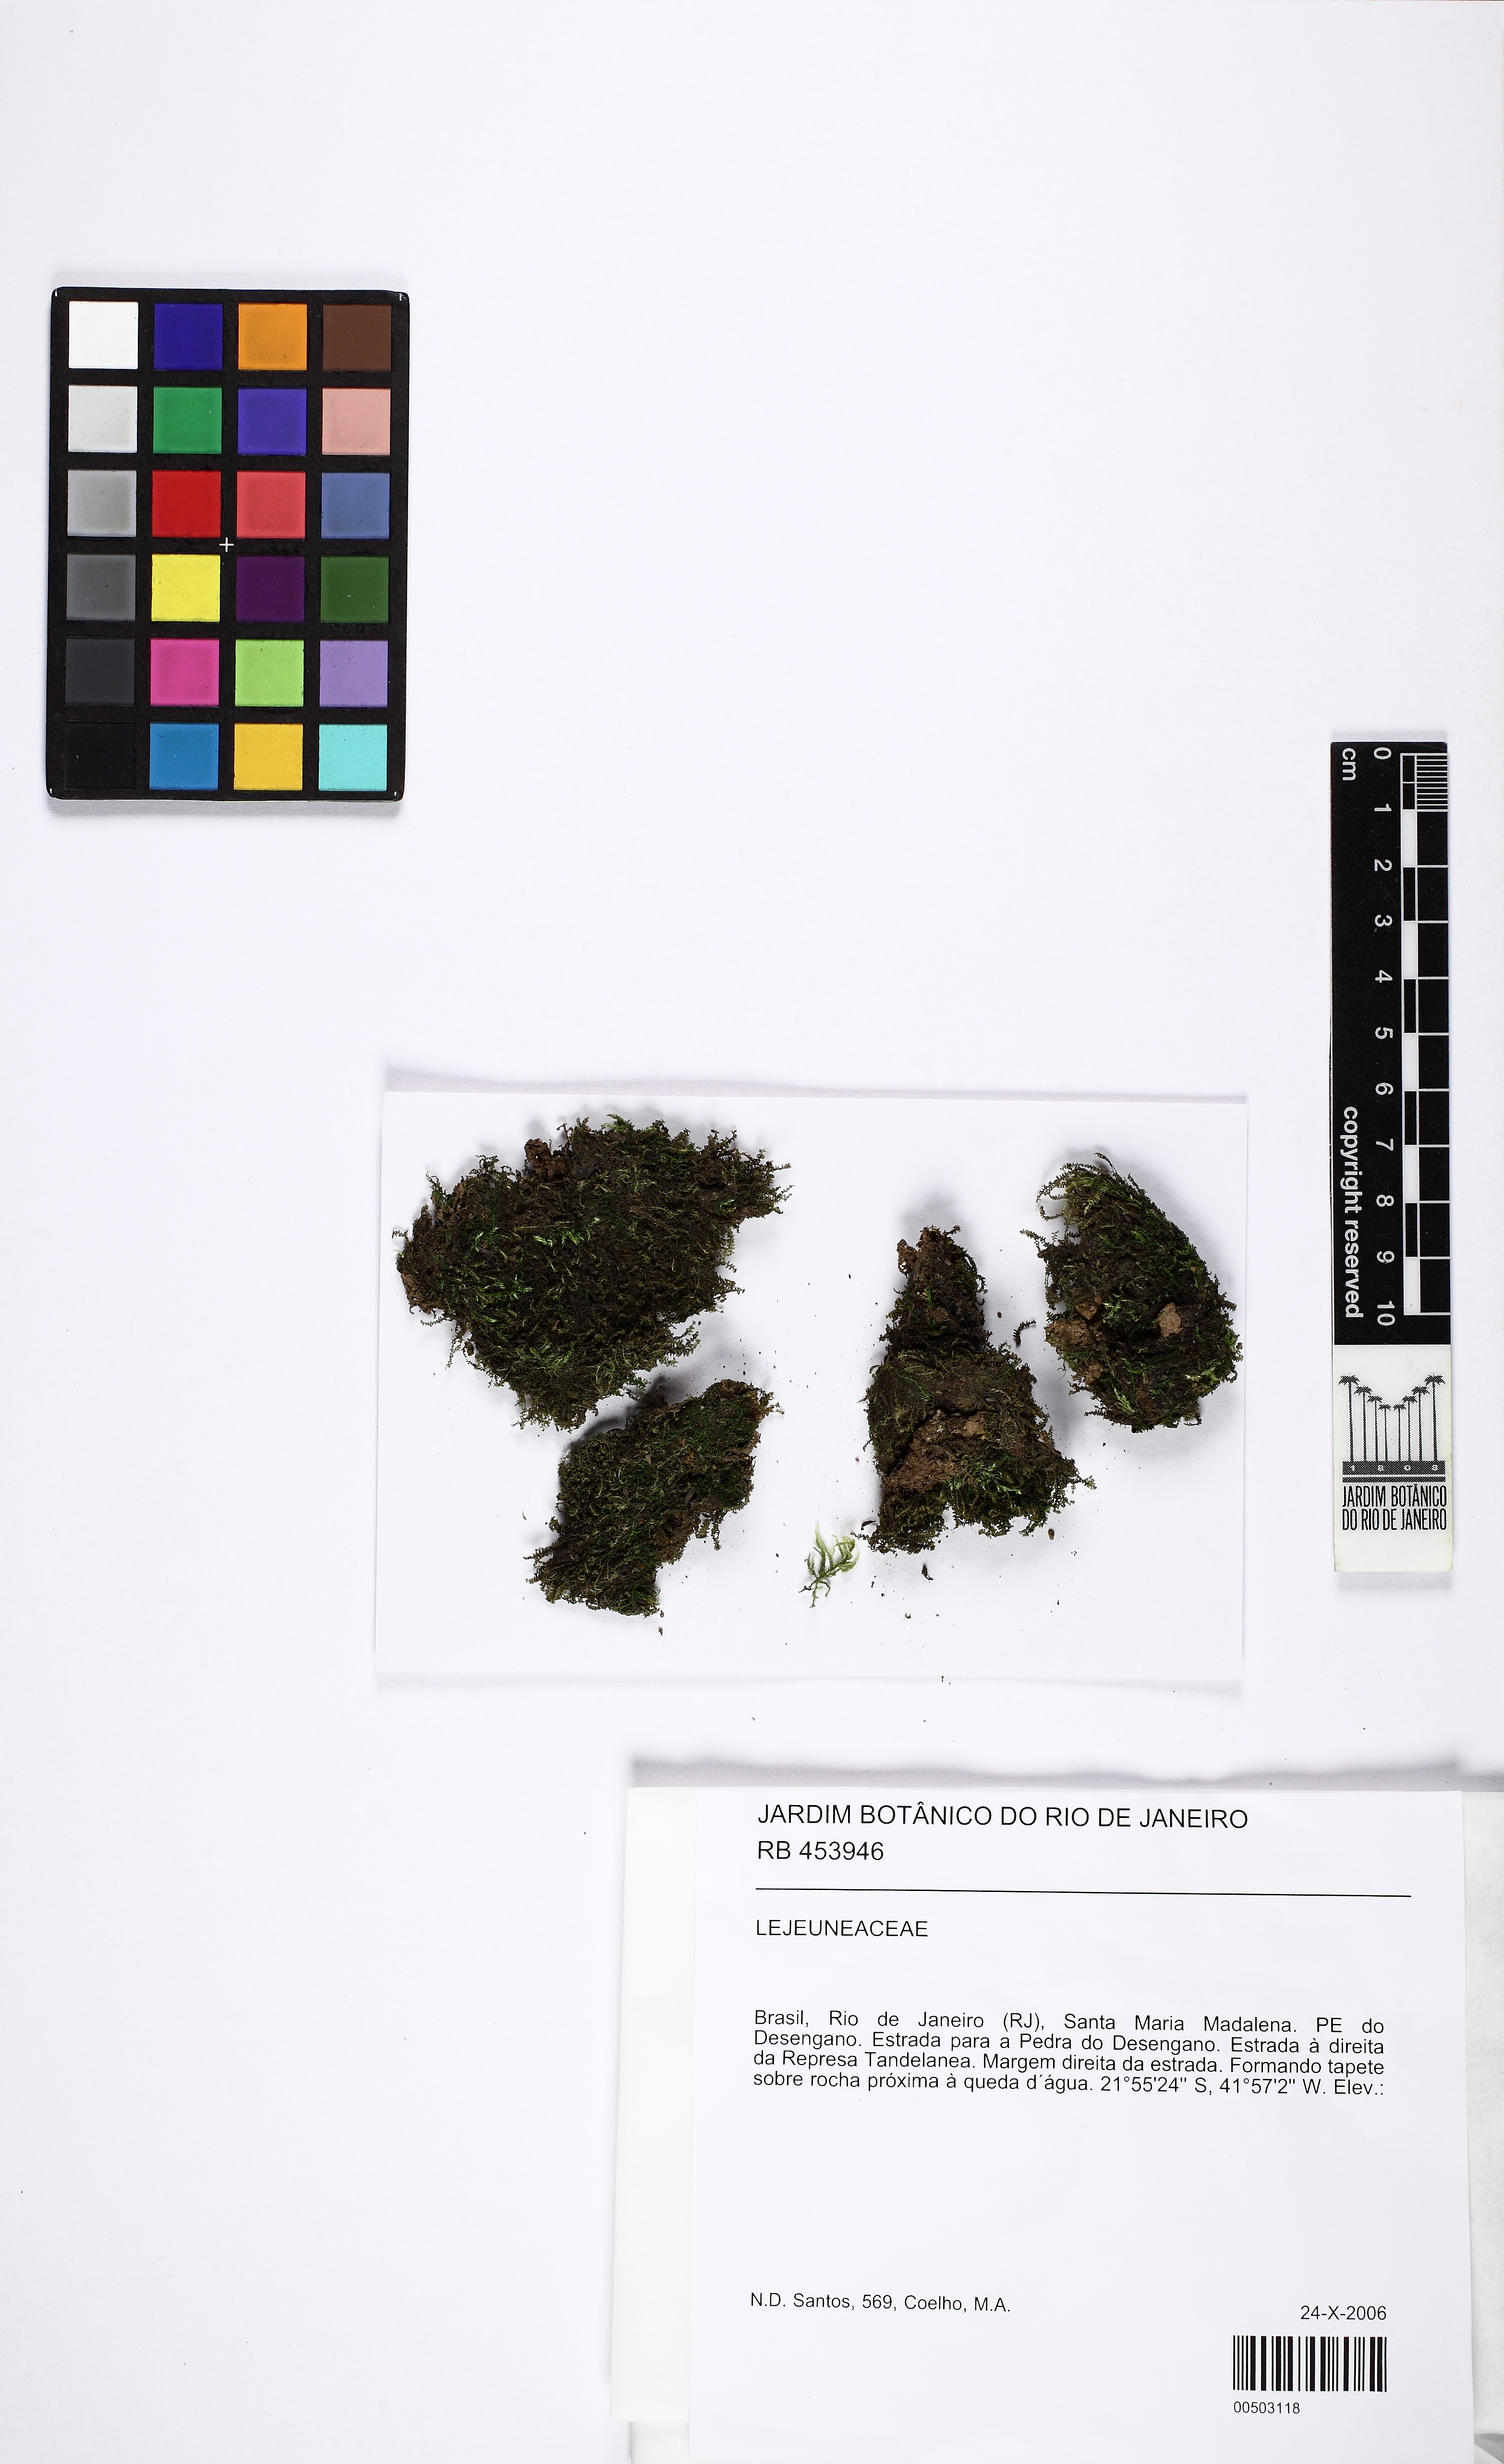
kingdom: Plantae
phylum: Marchantiophyta
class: Jungermanniopsida
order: Porellales
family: Lejeuneaceae
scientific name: Lejeuneaceae
